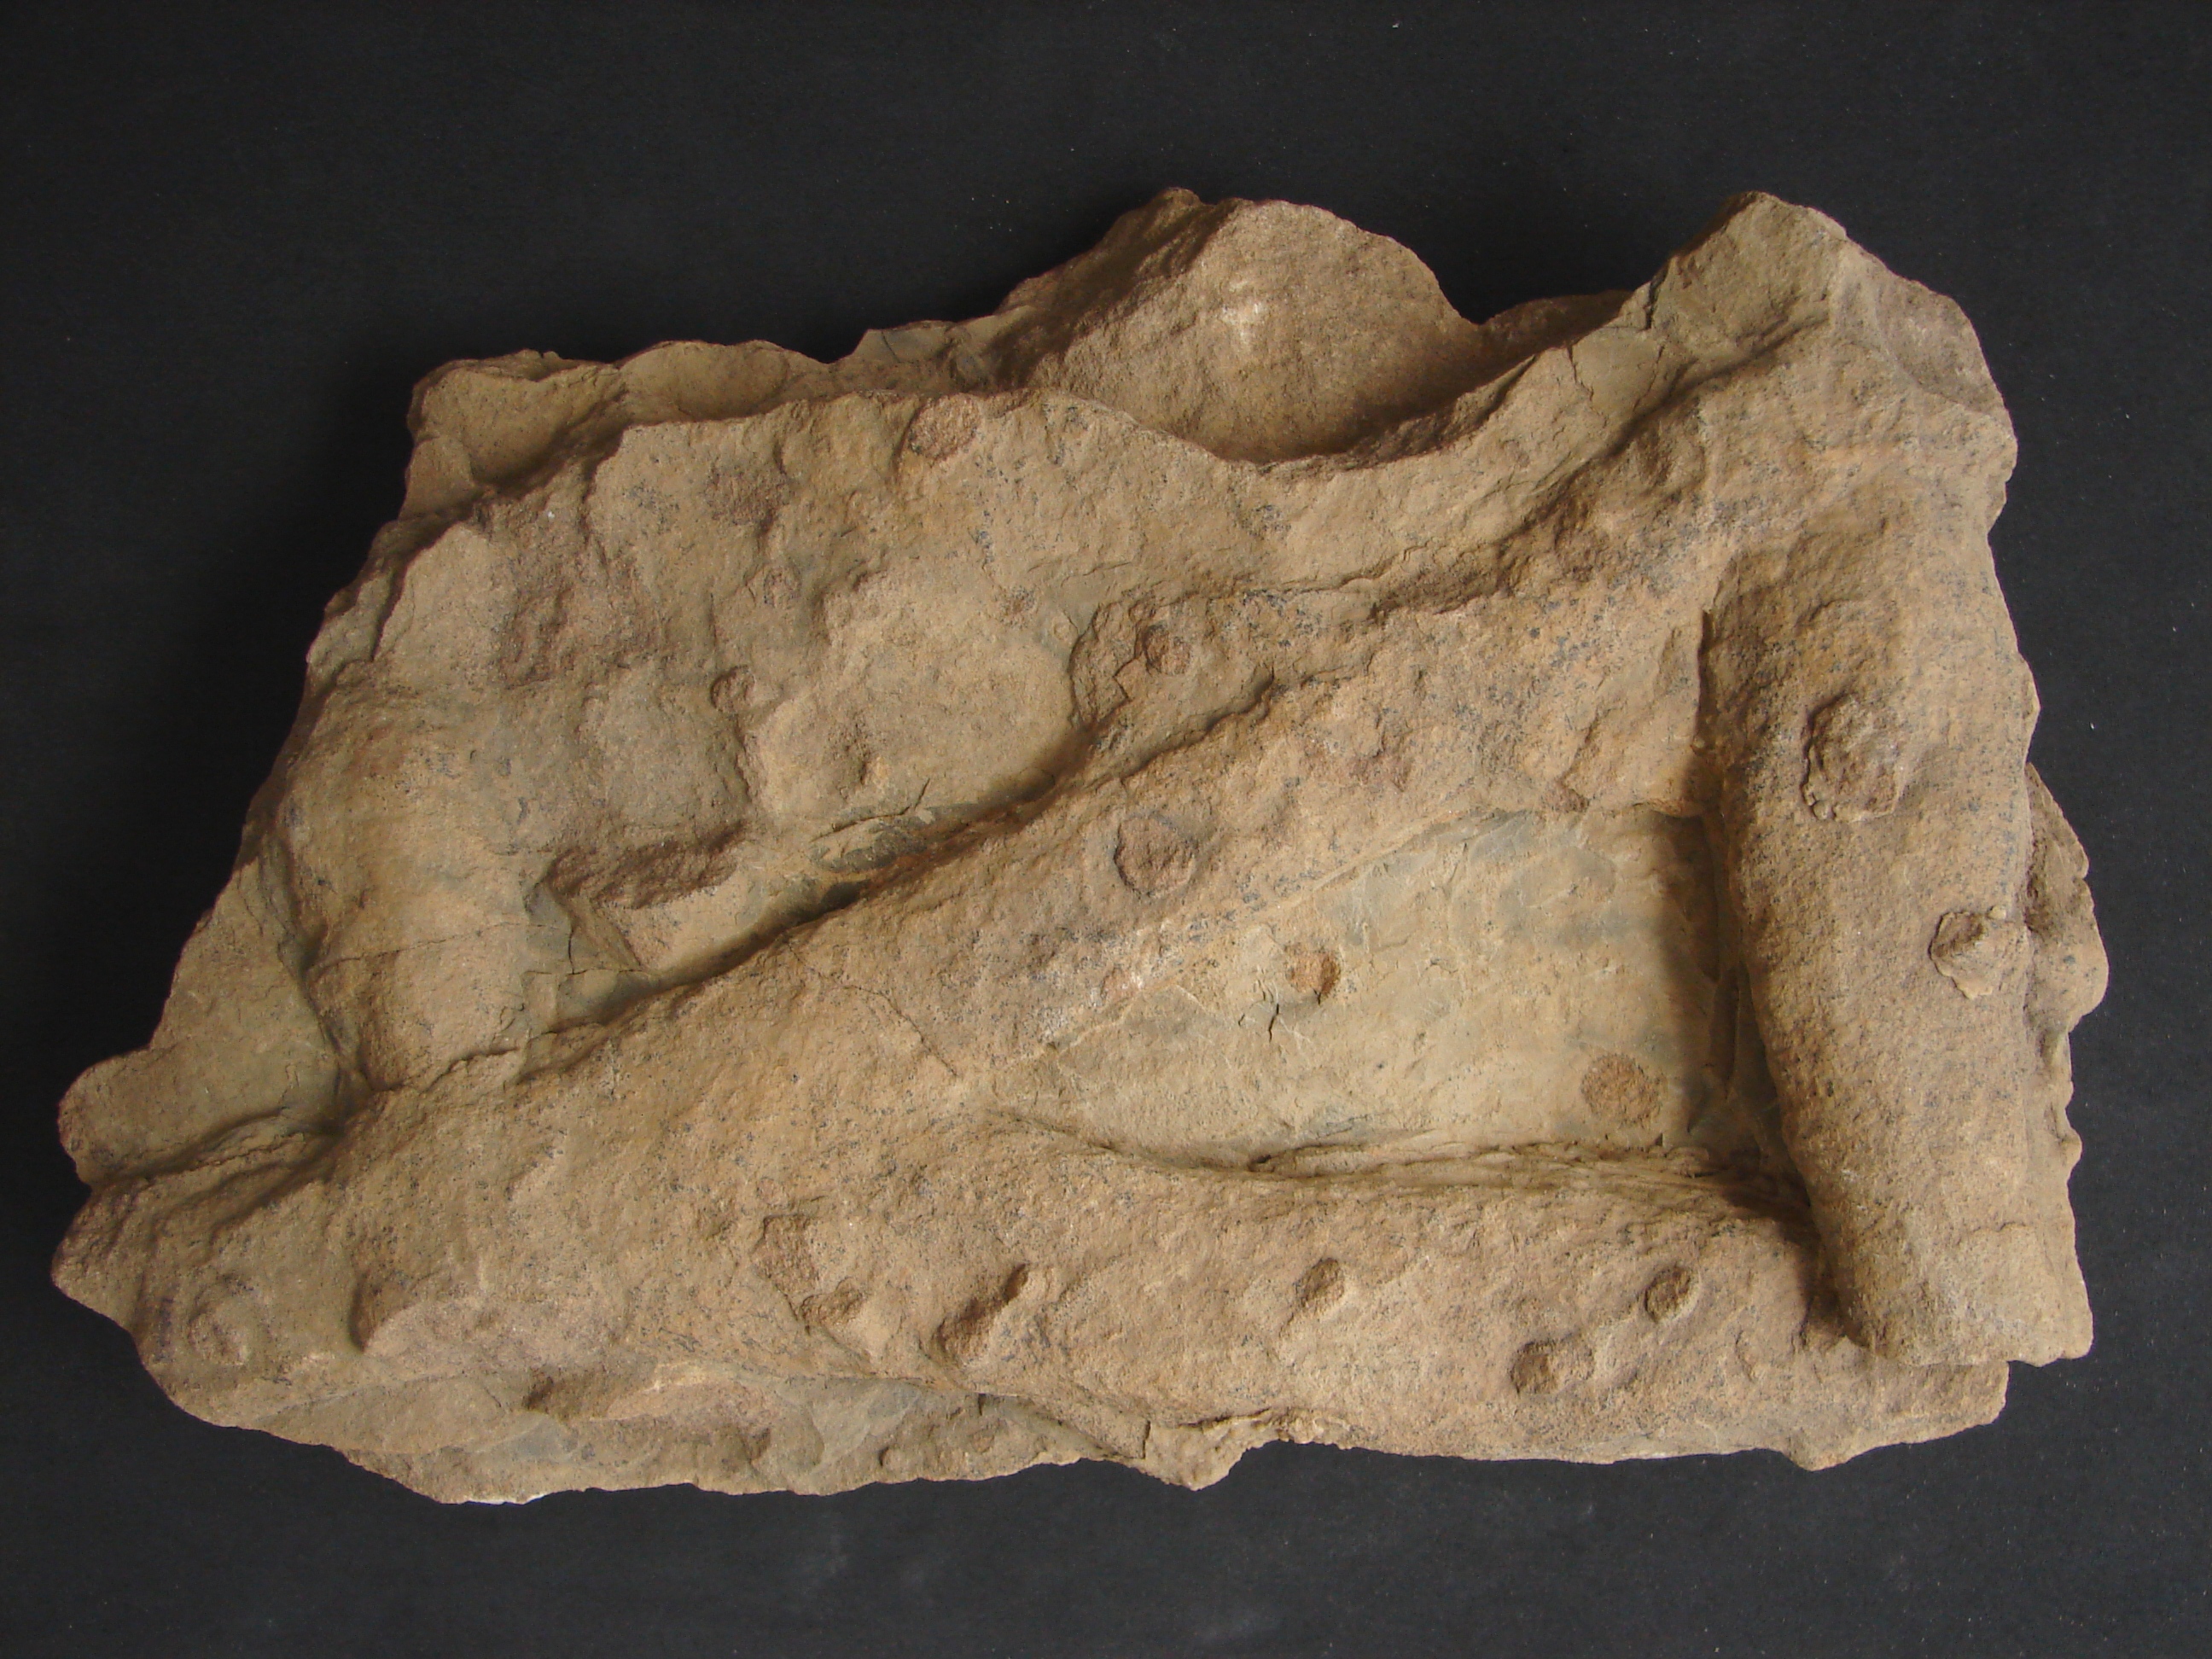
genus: Thalassinoides
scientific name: Thalassinoides
